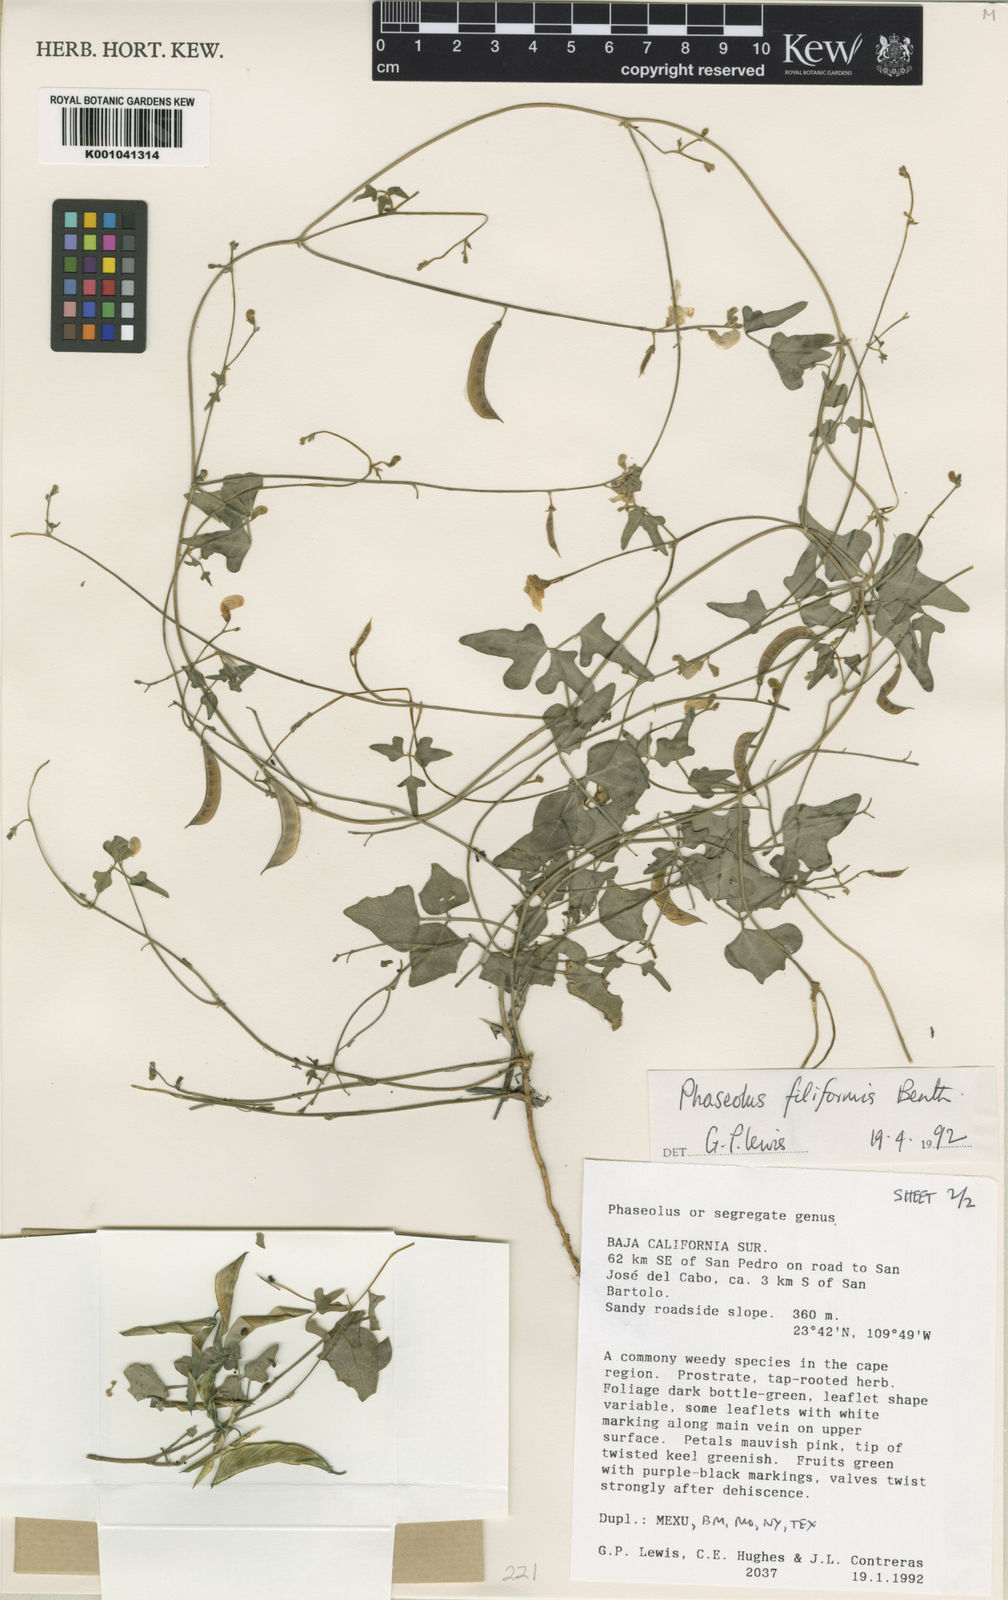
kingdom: Plantae
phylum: Tracheophyta
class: Magnoliopsida
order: Fabales
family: Fabaceae
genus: Phaseolus
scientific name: Phaseolus filiformis
